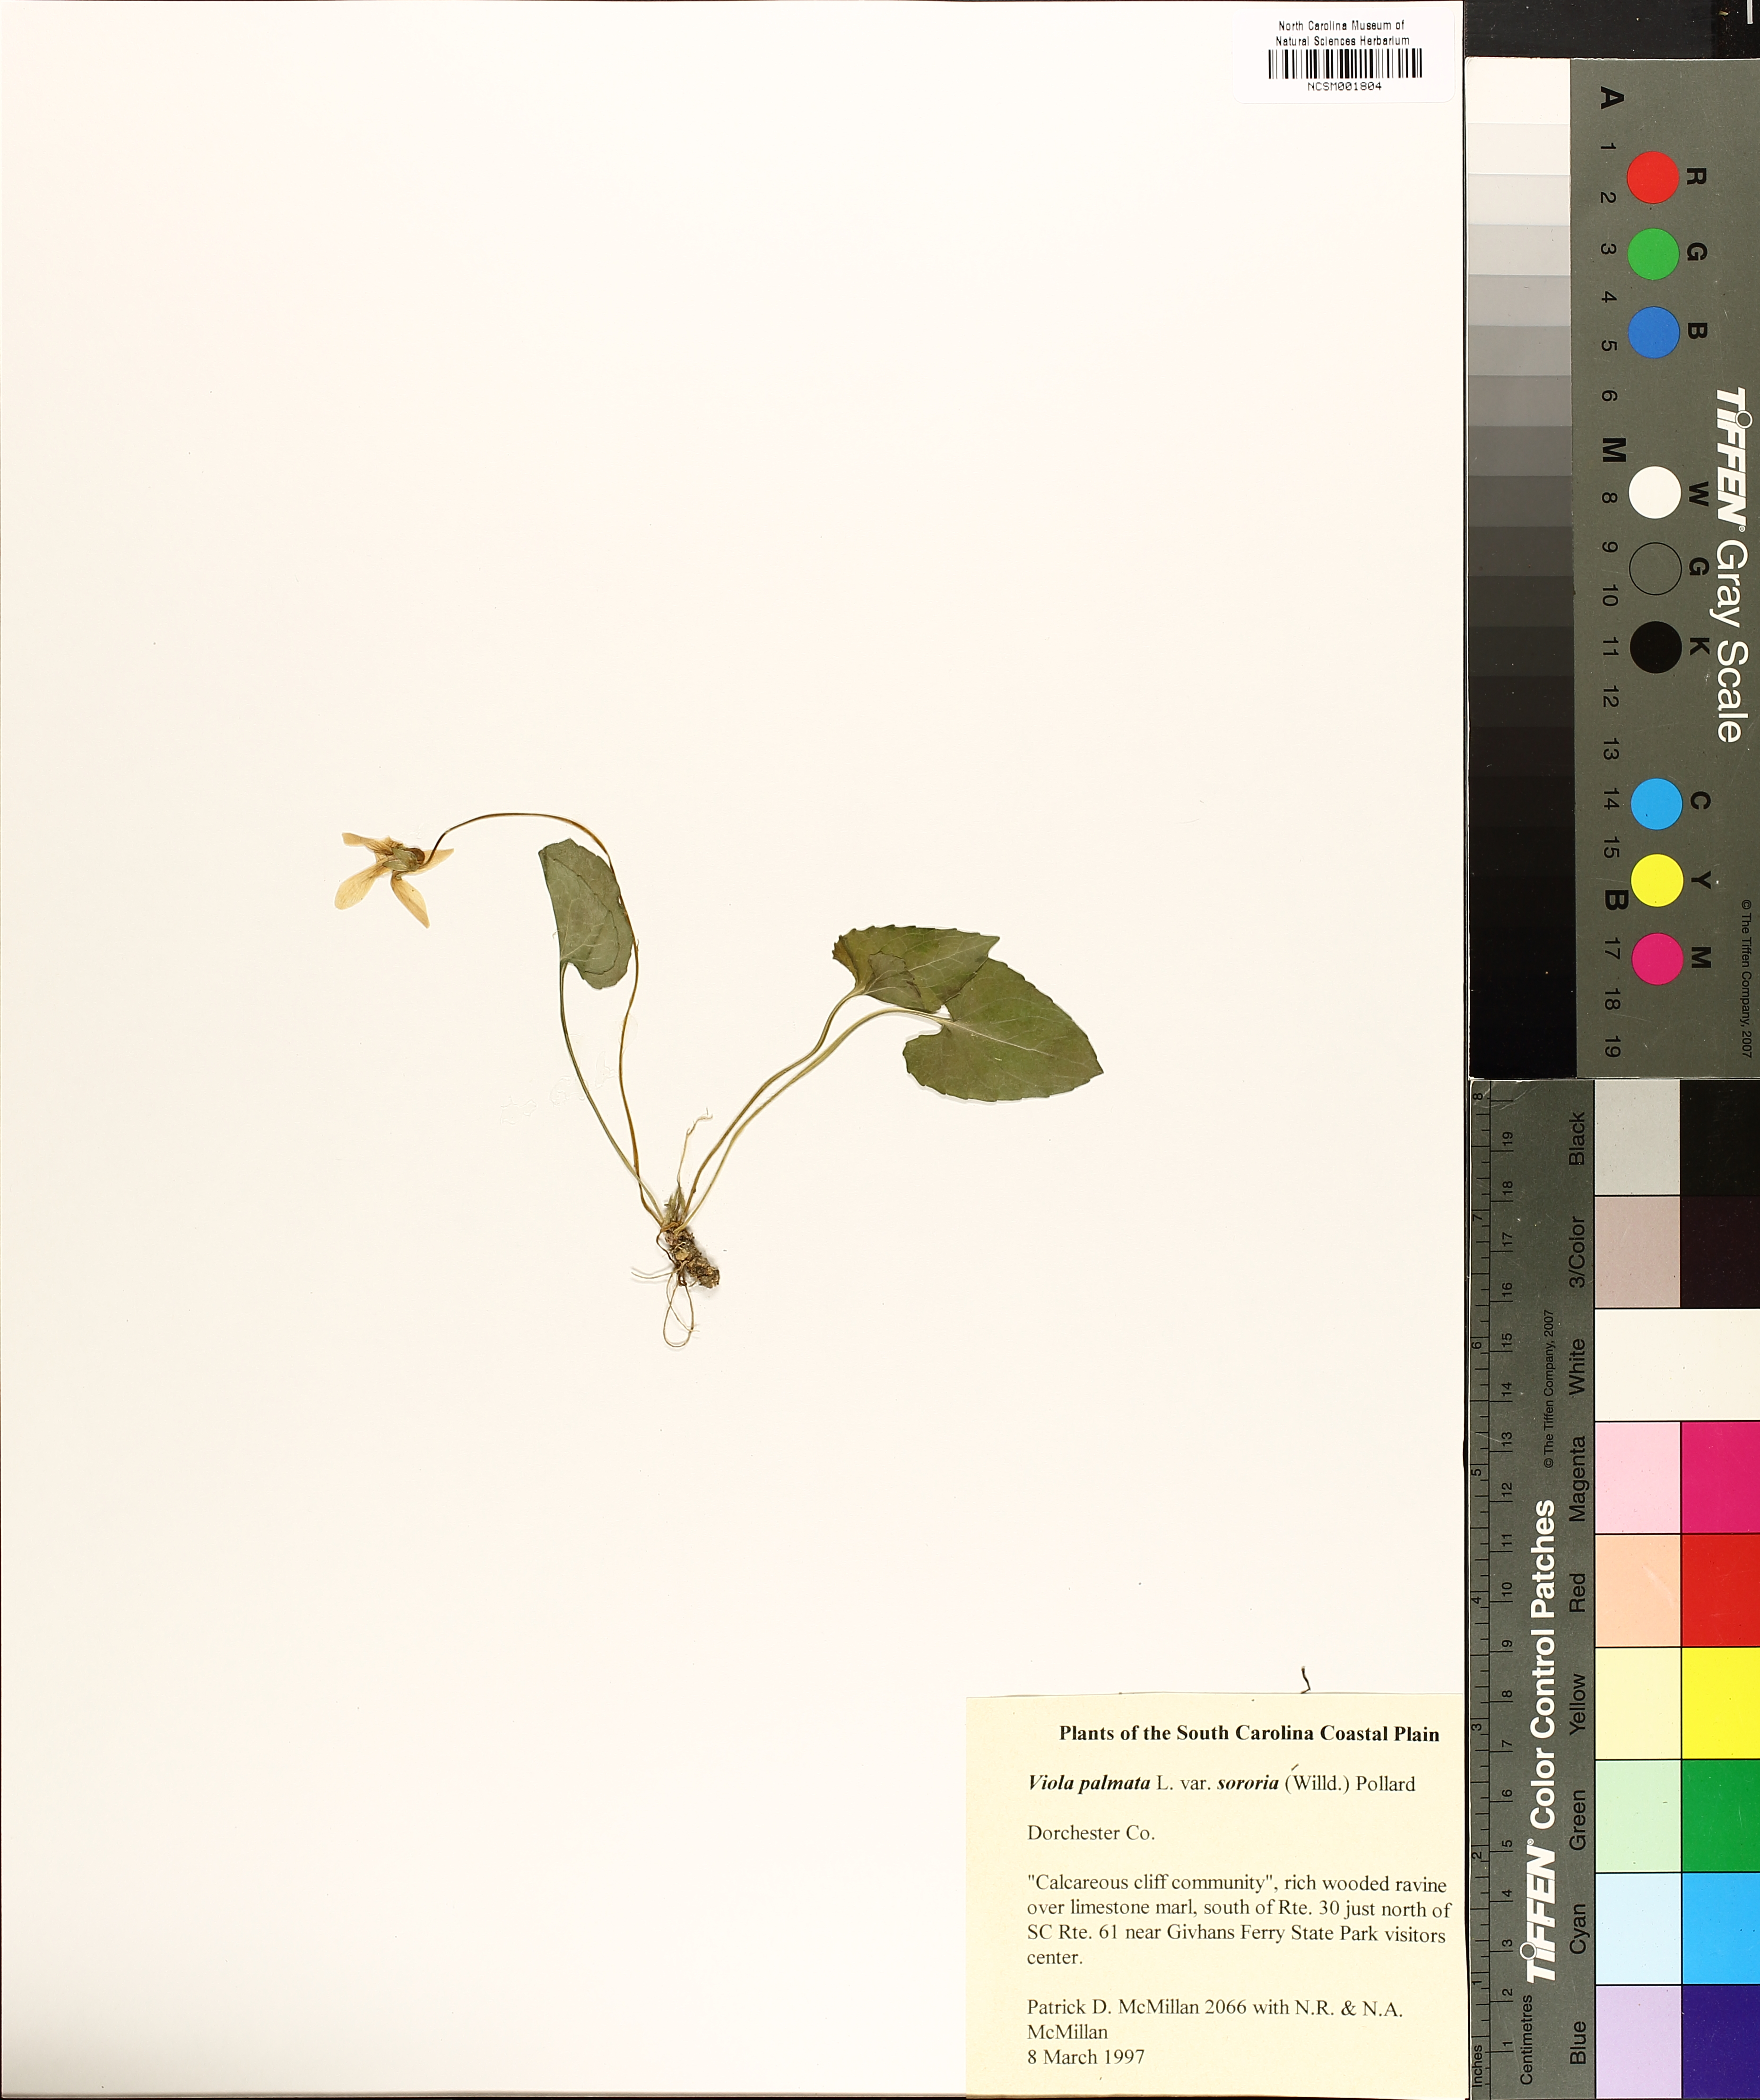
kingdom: Plantae
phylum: Tracheophyta
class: Magnoliopsida
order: Malpighiales
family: Violaceae
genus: Viola
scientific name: Viola sororia
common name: Dooryard violet
